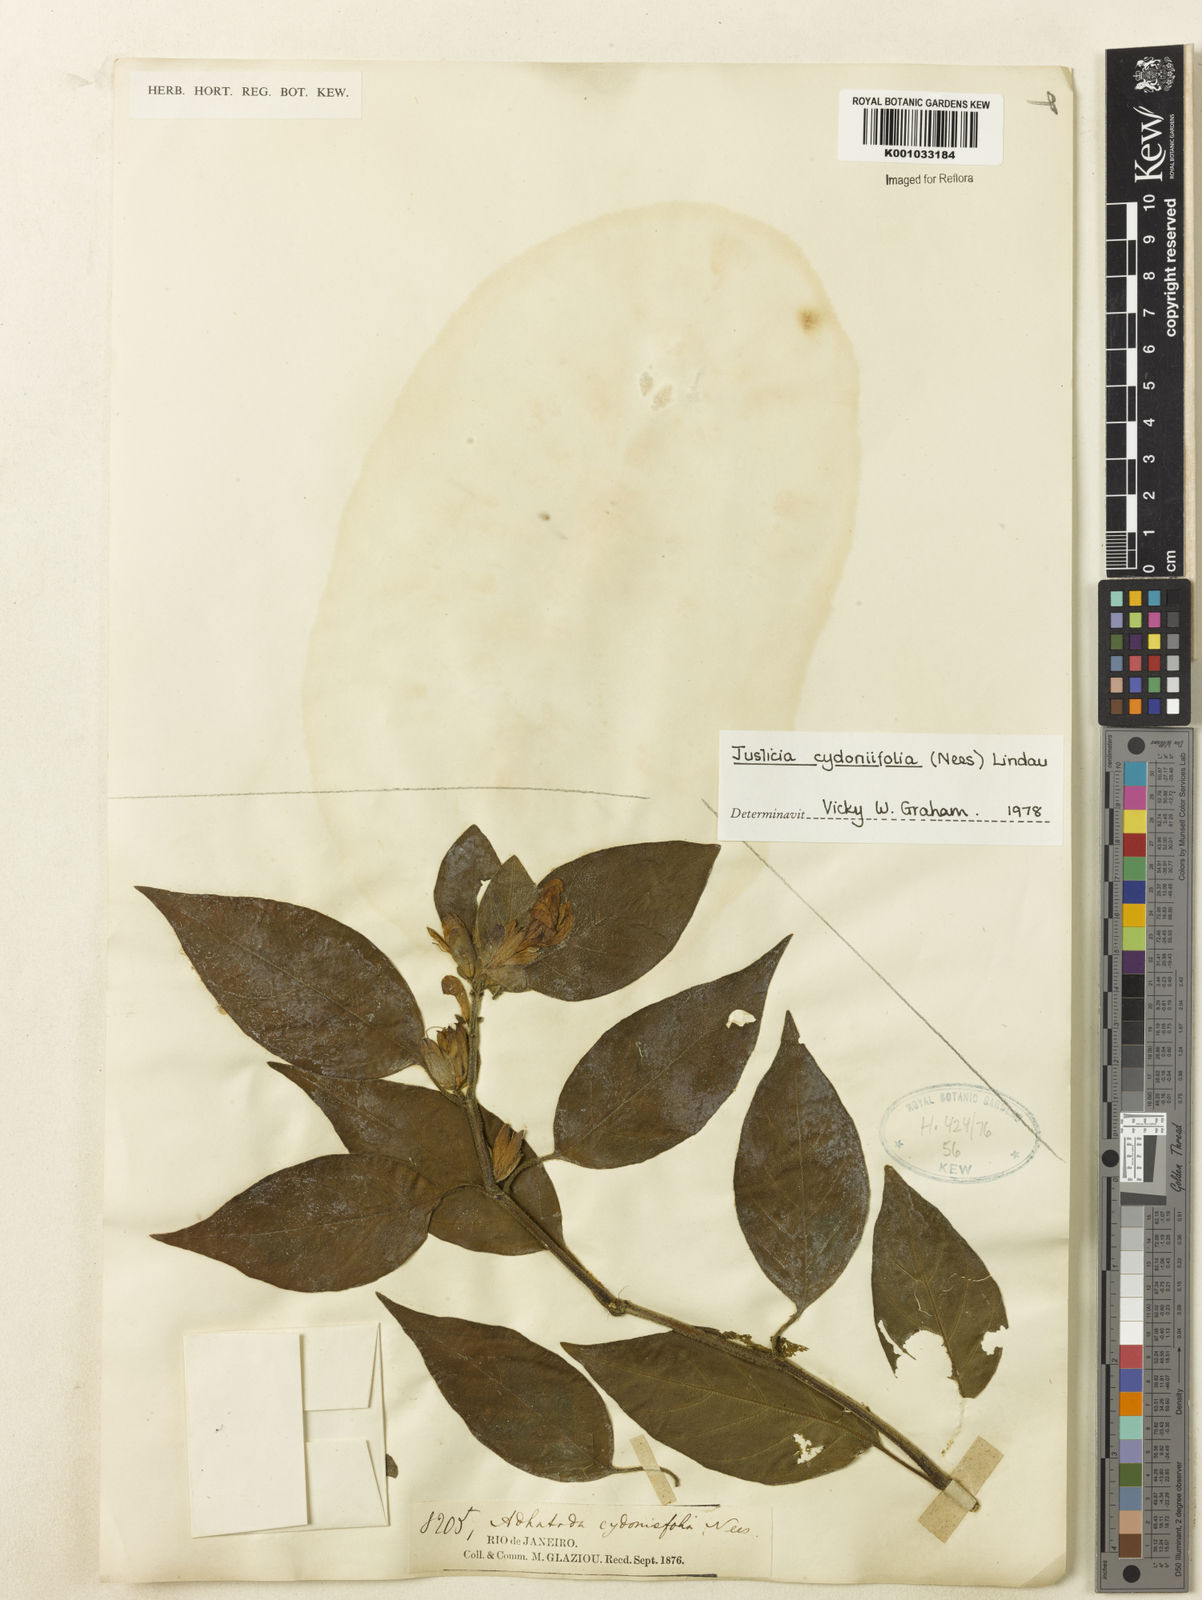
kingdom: Plantae
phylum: Tracheophyta
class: Magnoliopsida
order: Lamiales
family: Acanthaceae
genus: Justicia
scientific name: Justicia
